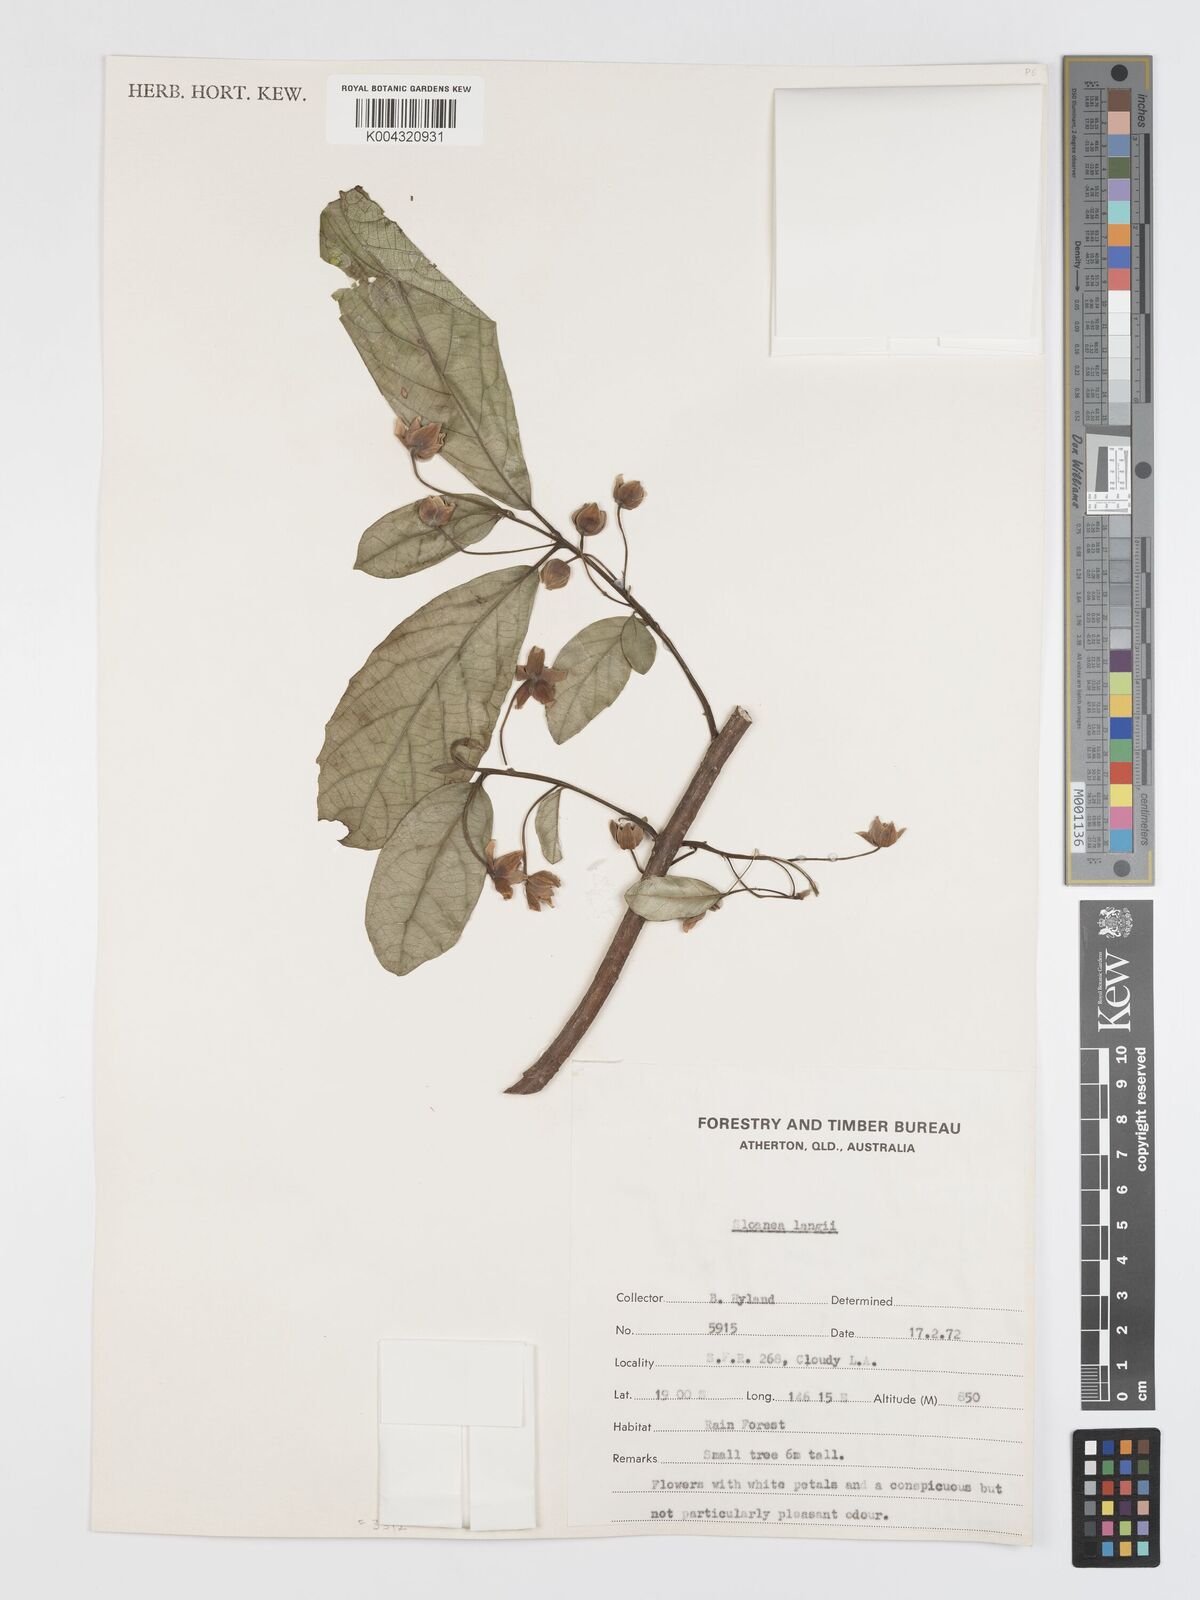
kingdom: Plantae
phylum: Tracheophyta
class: Magnoliopsida
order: Oxalidales
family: Elaeocarpaceae
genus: Sloanea
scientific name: Sloanea langii
